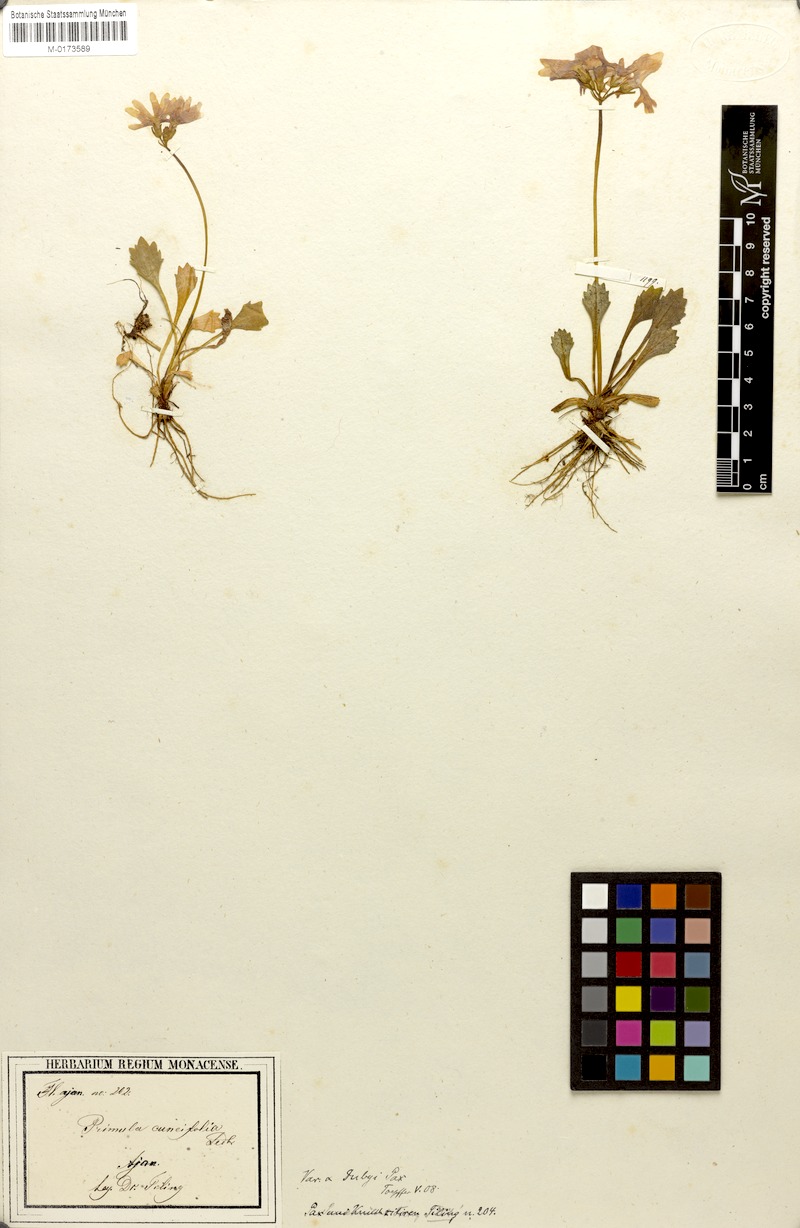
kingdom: Plantae
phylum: Tracheophyta
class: Magnoliopsida
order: Ericales
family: Primulaceae
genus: Primula
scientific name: Primula cuneifolia
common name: Wedge-leaved primrose
